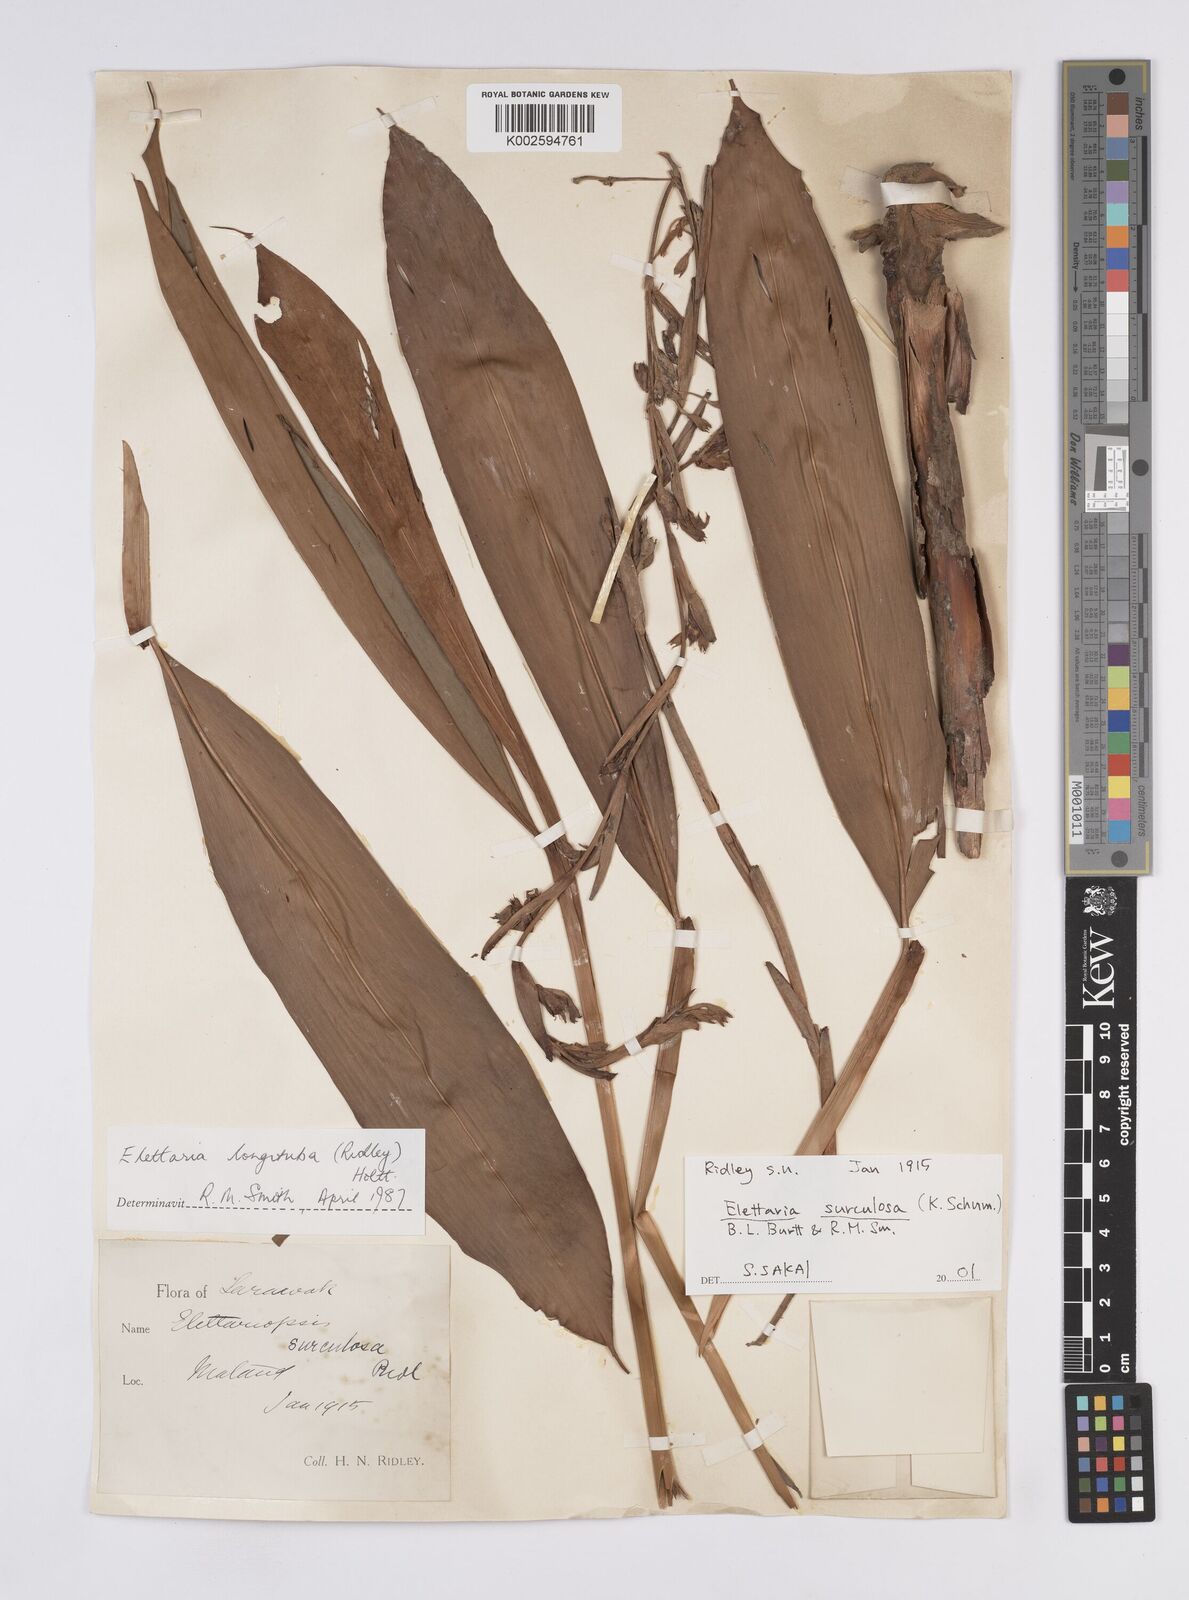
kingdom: Plantae
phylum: Tracheophyta
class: Liliopsida
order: Zingiberales
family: Zingiberaceae
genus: Elettaria
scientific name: Elettaria
